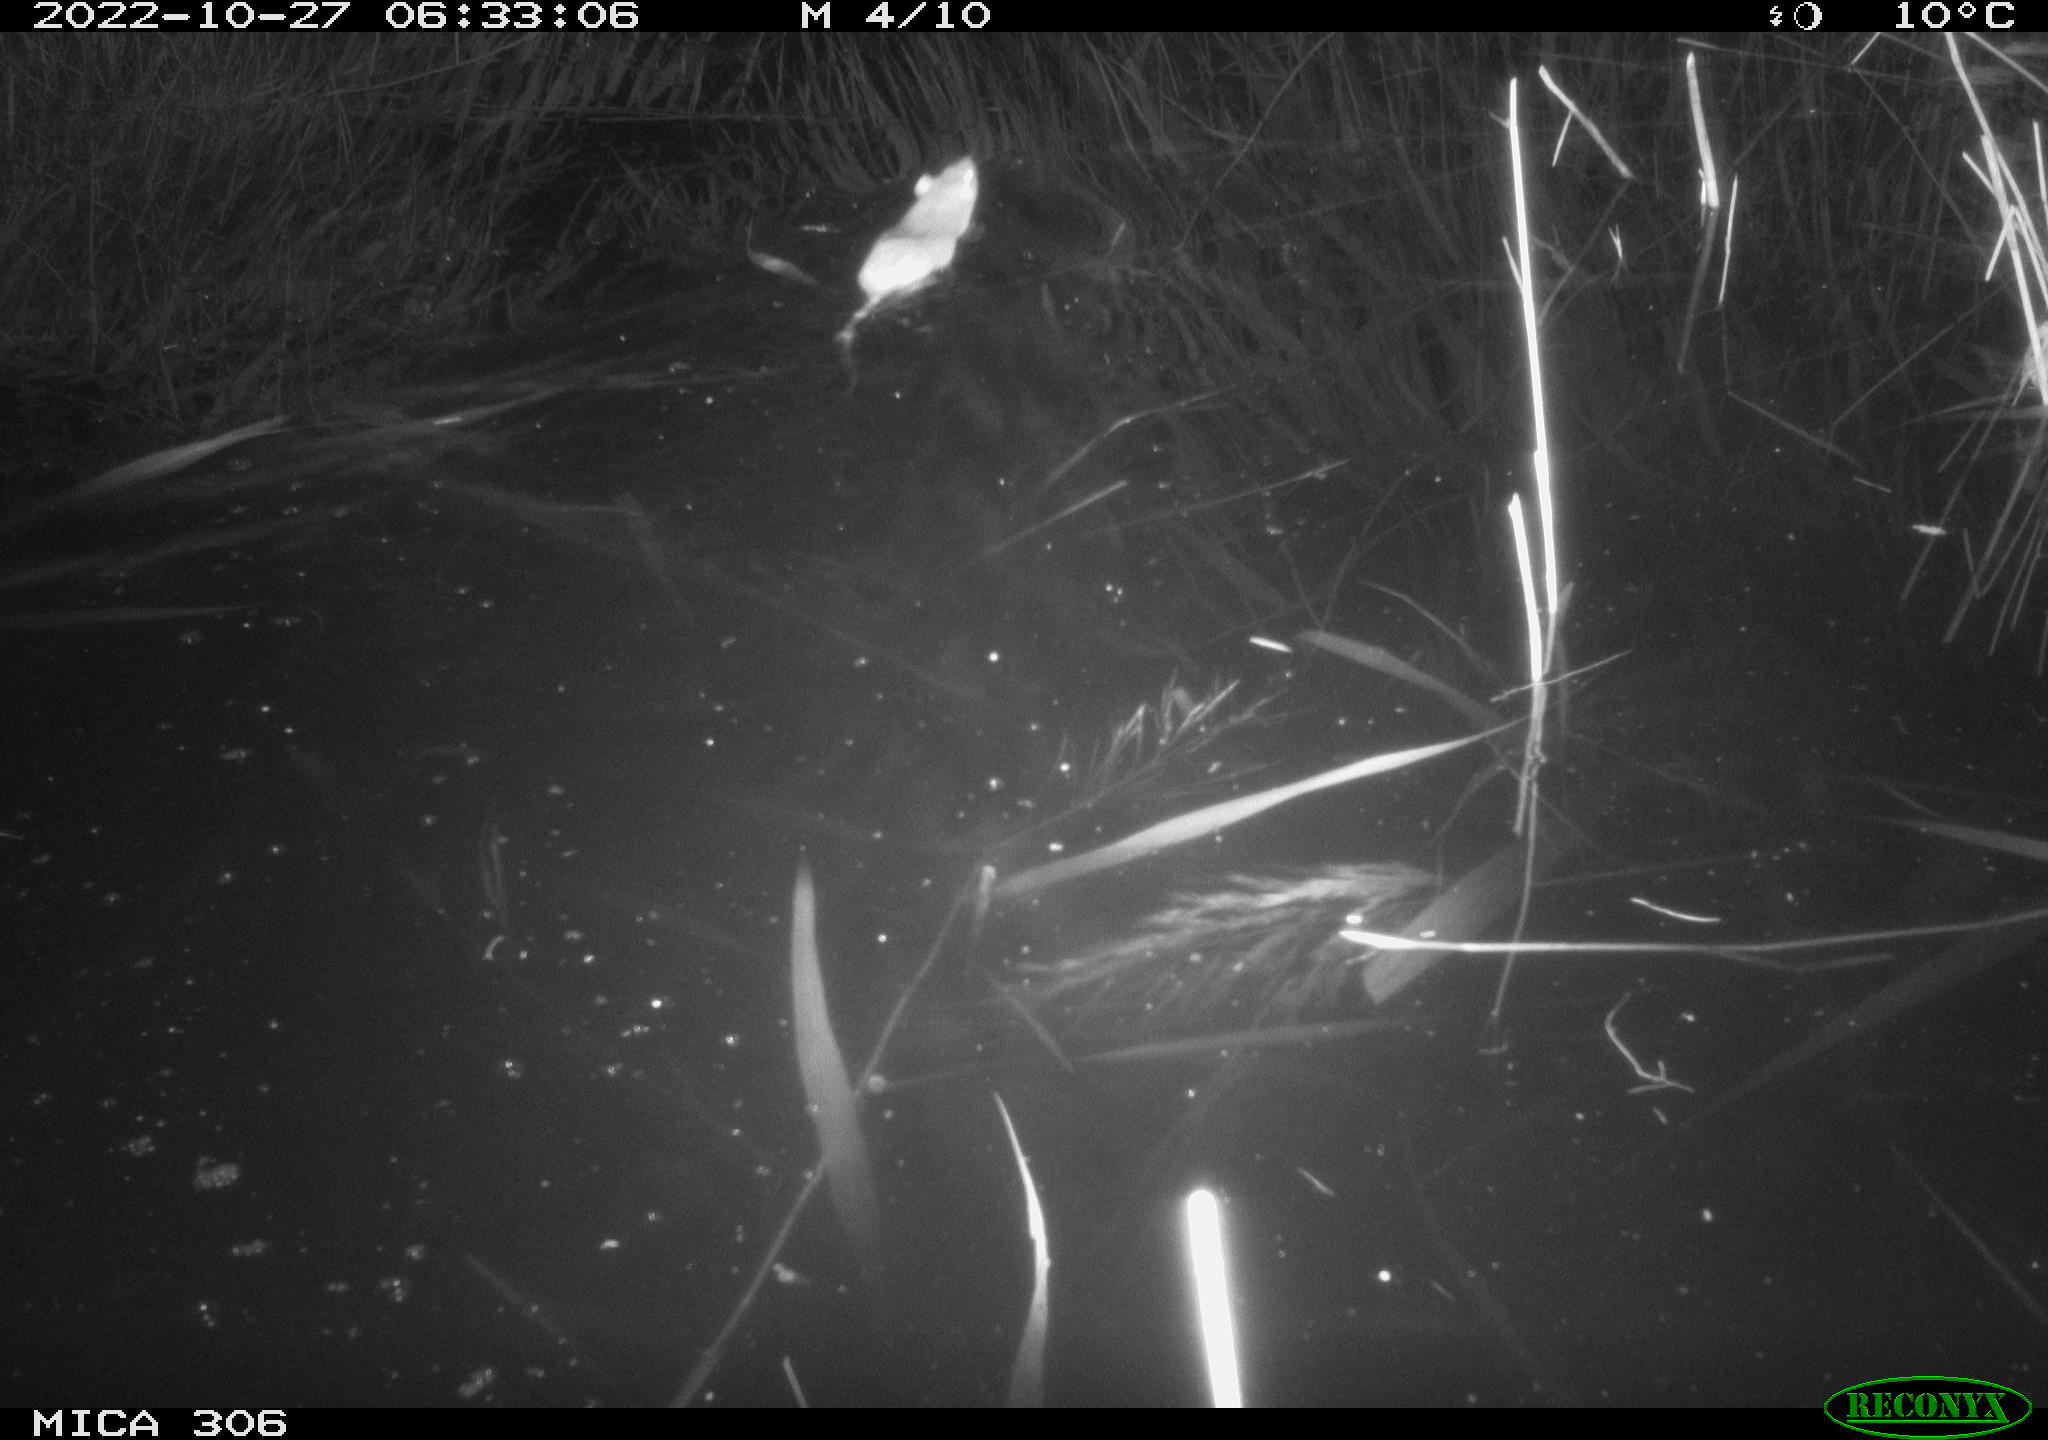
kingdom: Animalia
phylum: Chordata
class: Mammalia
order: Rodentia
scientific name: Rodentia
